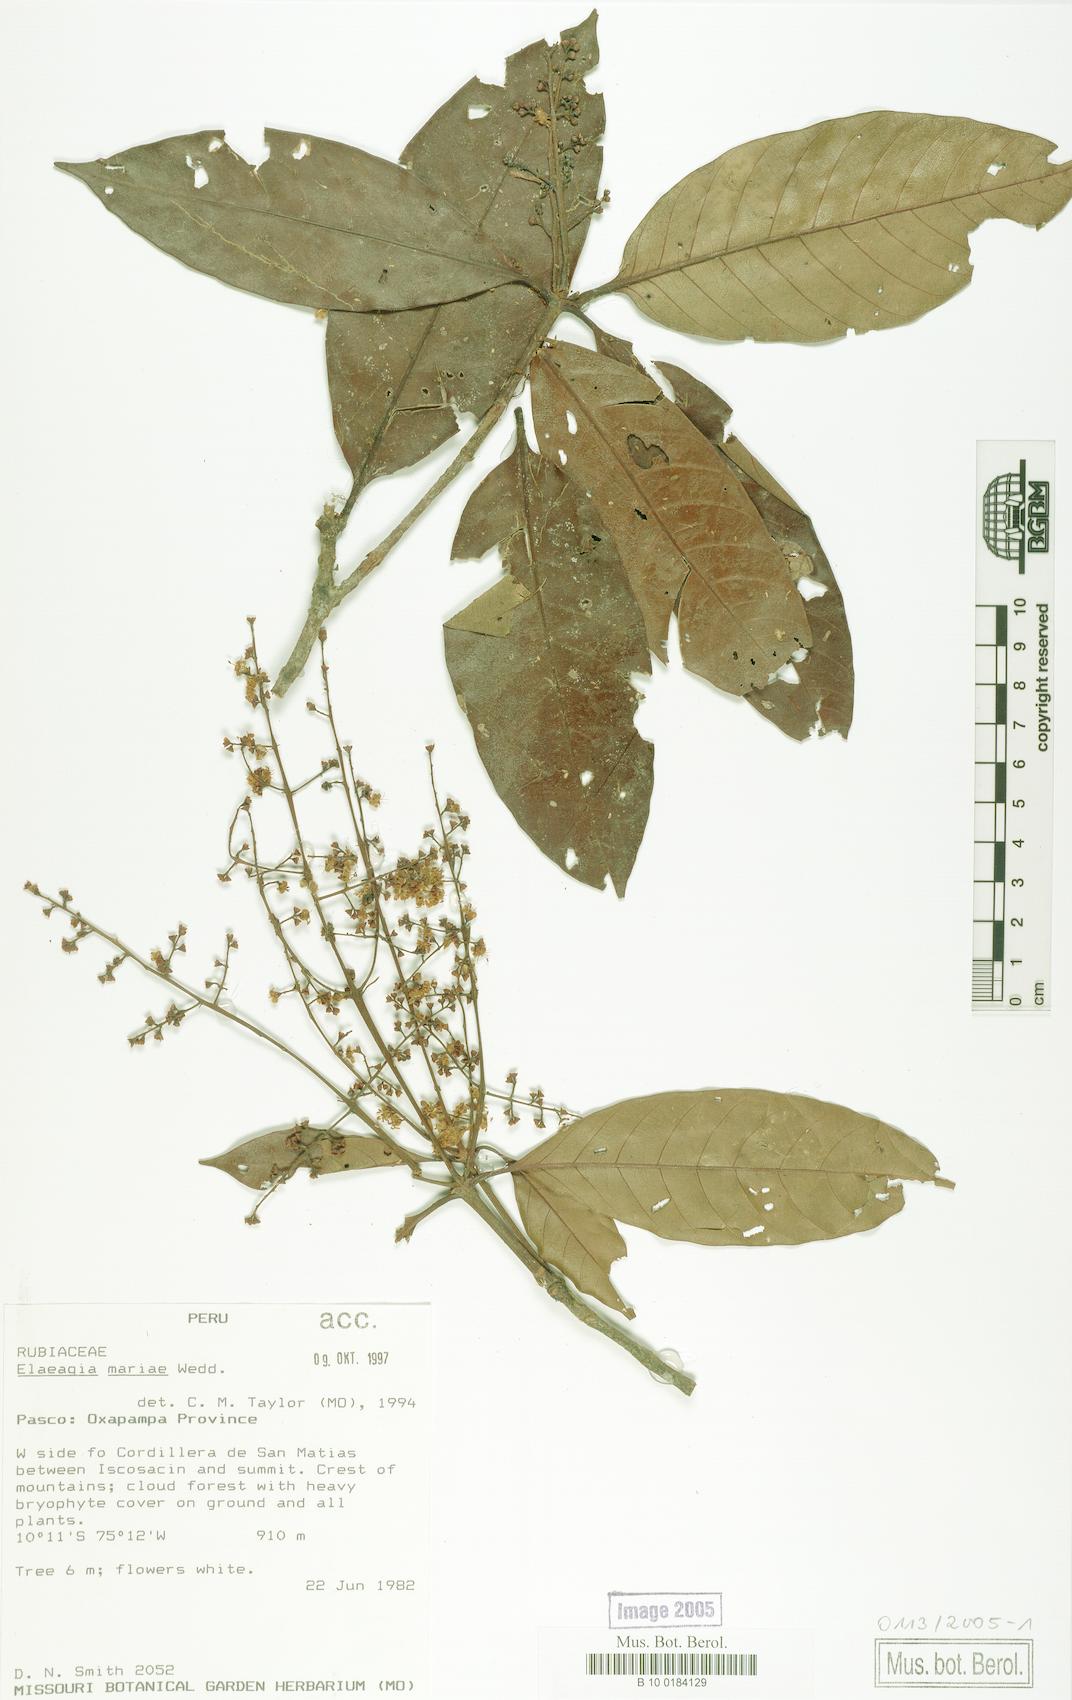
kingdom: Plantae
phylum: Tracheophyta
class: Magnoliopsida
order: Gentianales
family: Rubiaceae
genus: Elaeagia
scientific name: Elaeagia mariae
